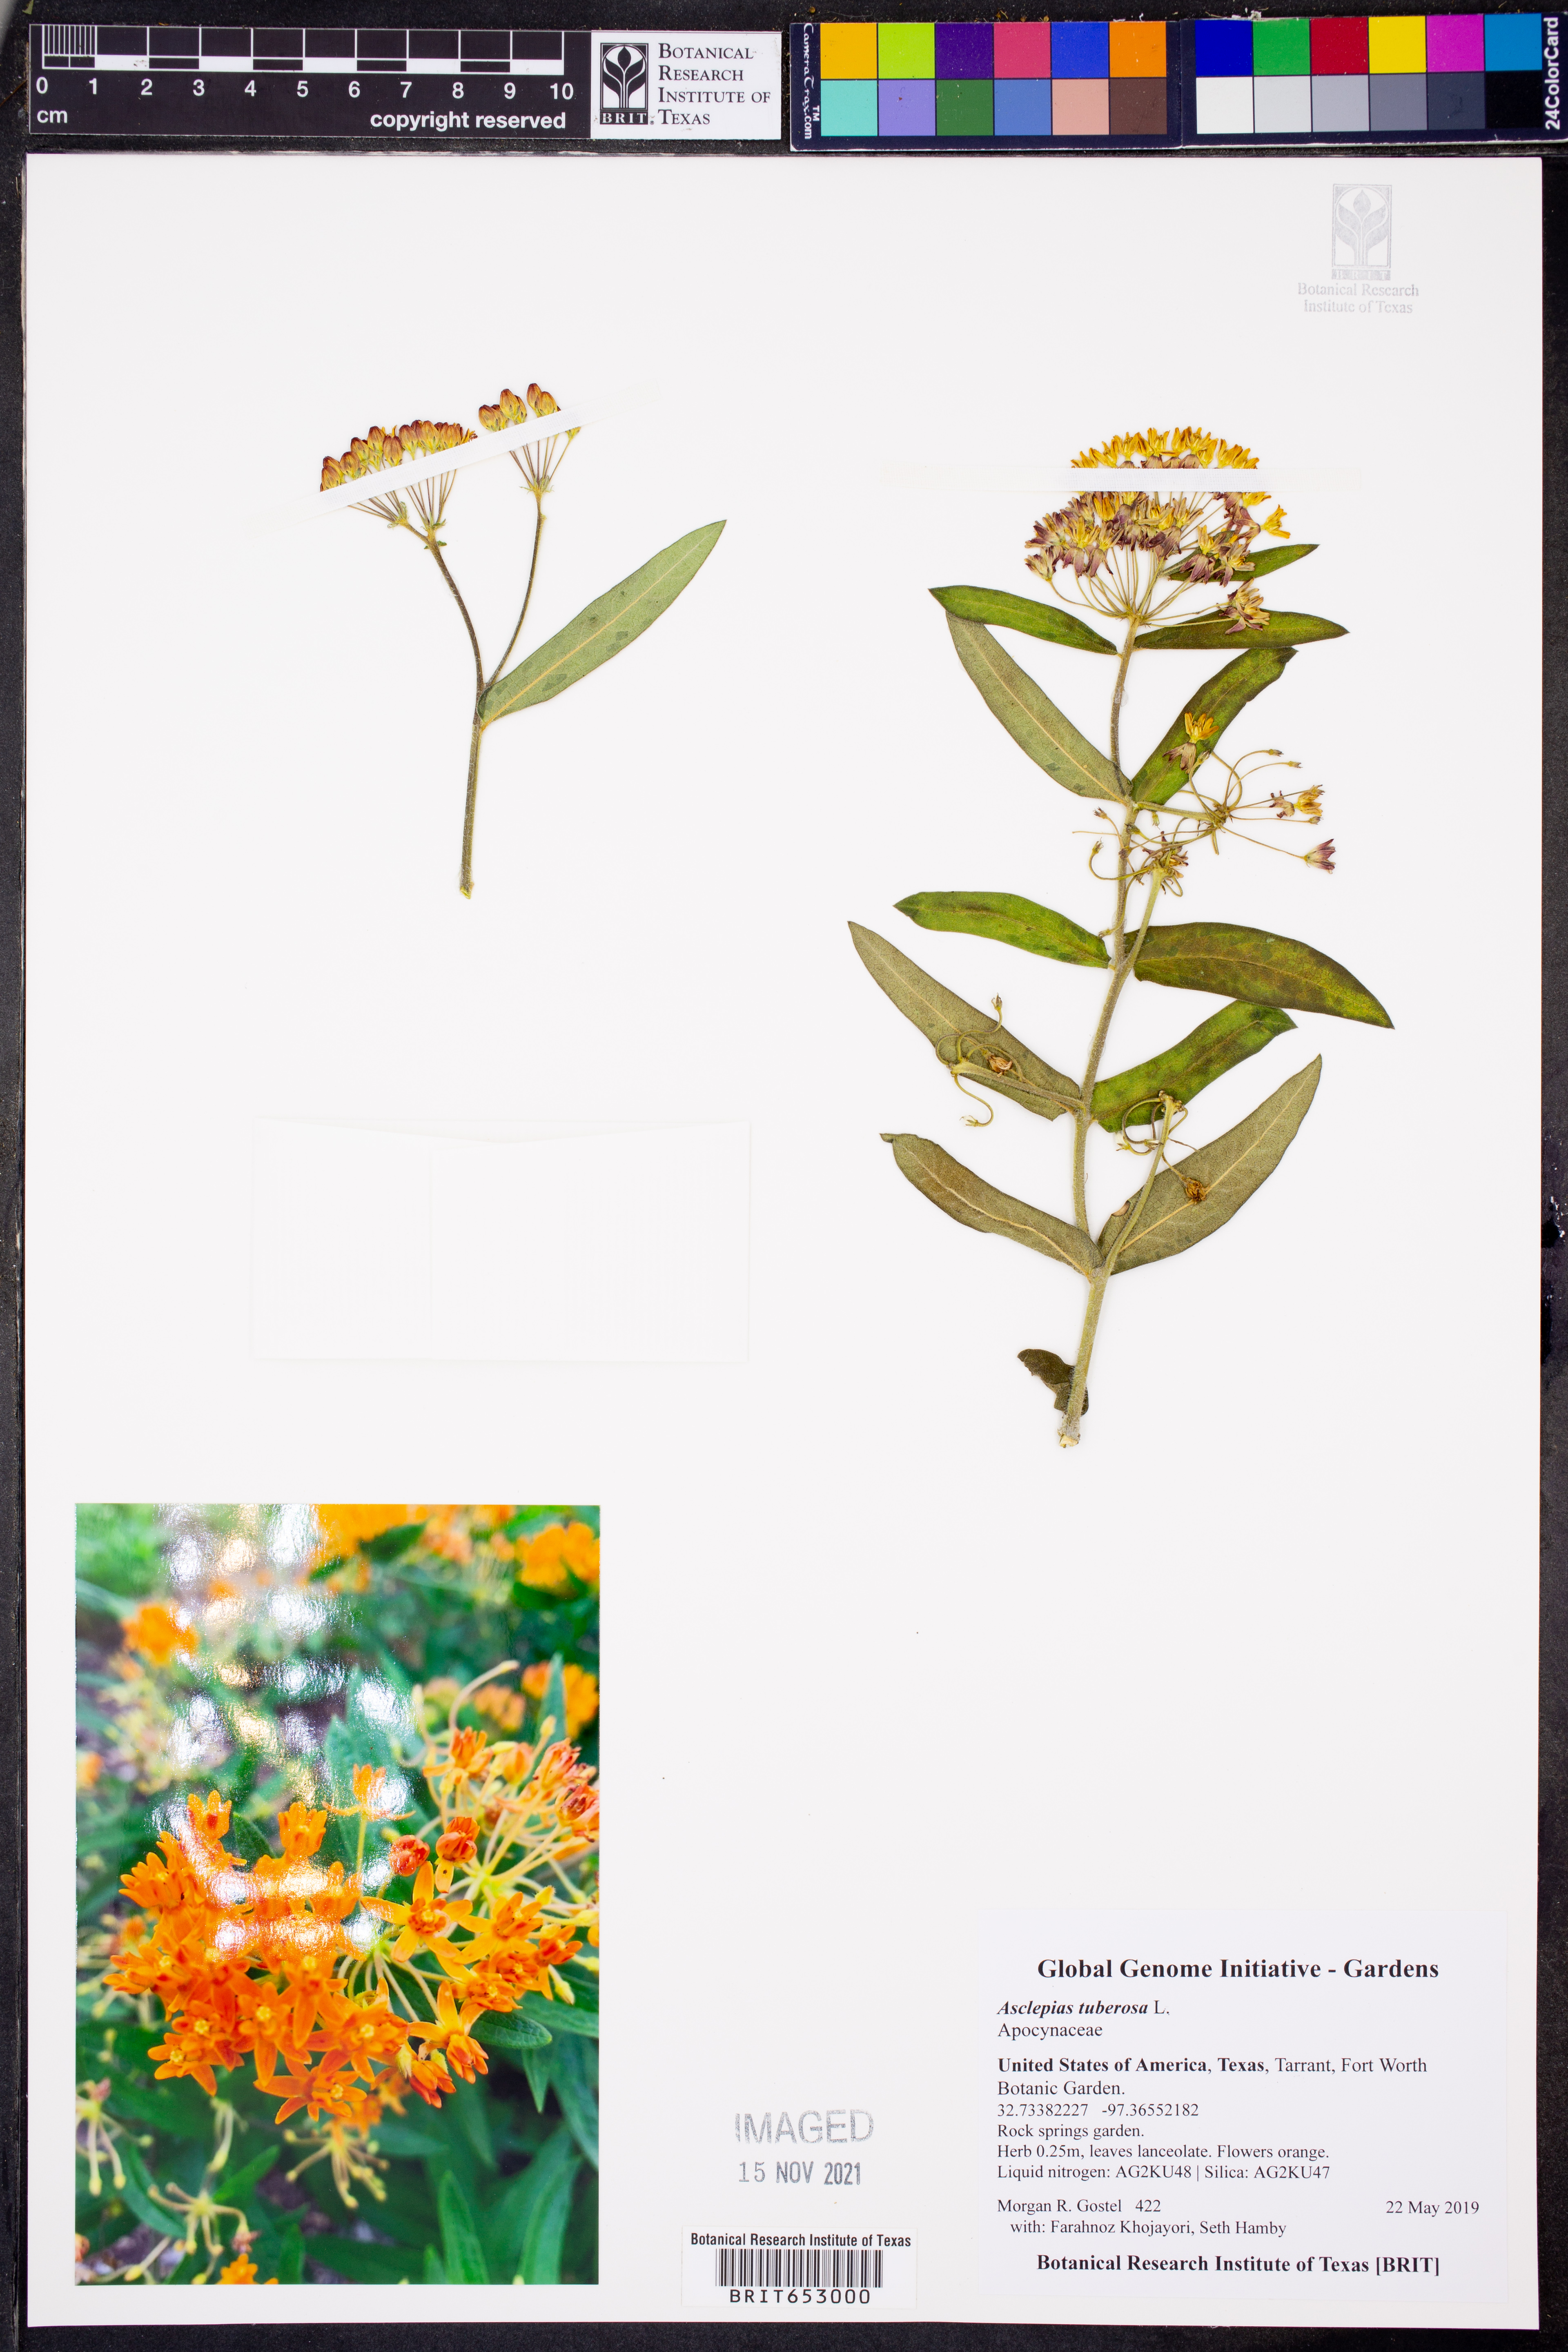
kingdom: Plantae
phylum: Tracheophyta
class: Magnoliopsida
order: Gentianales
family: Apocynaceae
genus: Asclepias
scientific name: Asclepias tuberosa
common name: Butterfly milkweed
